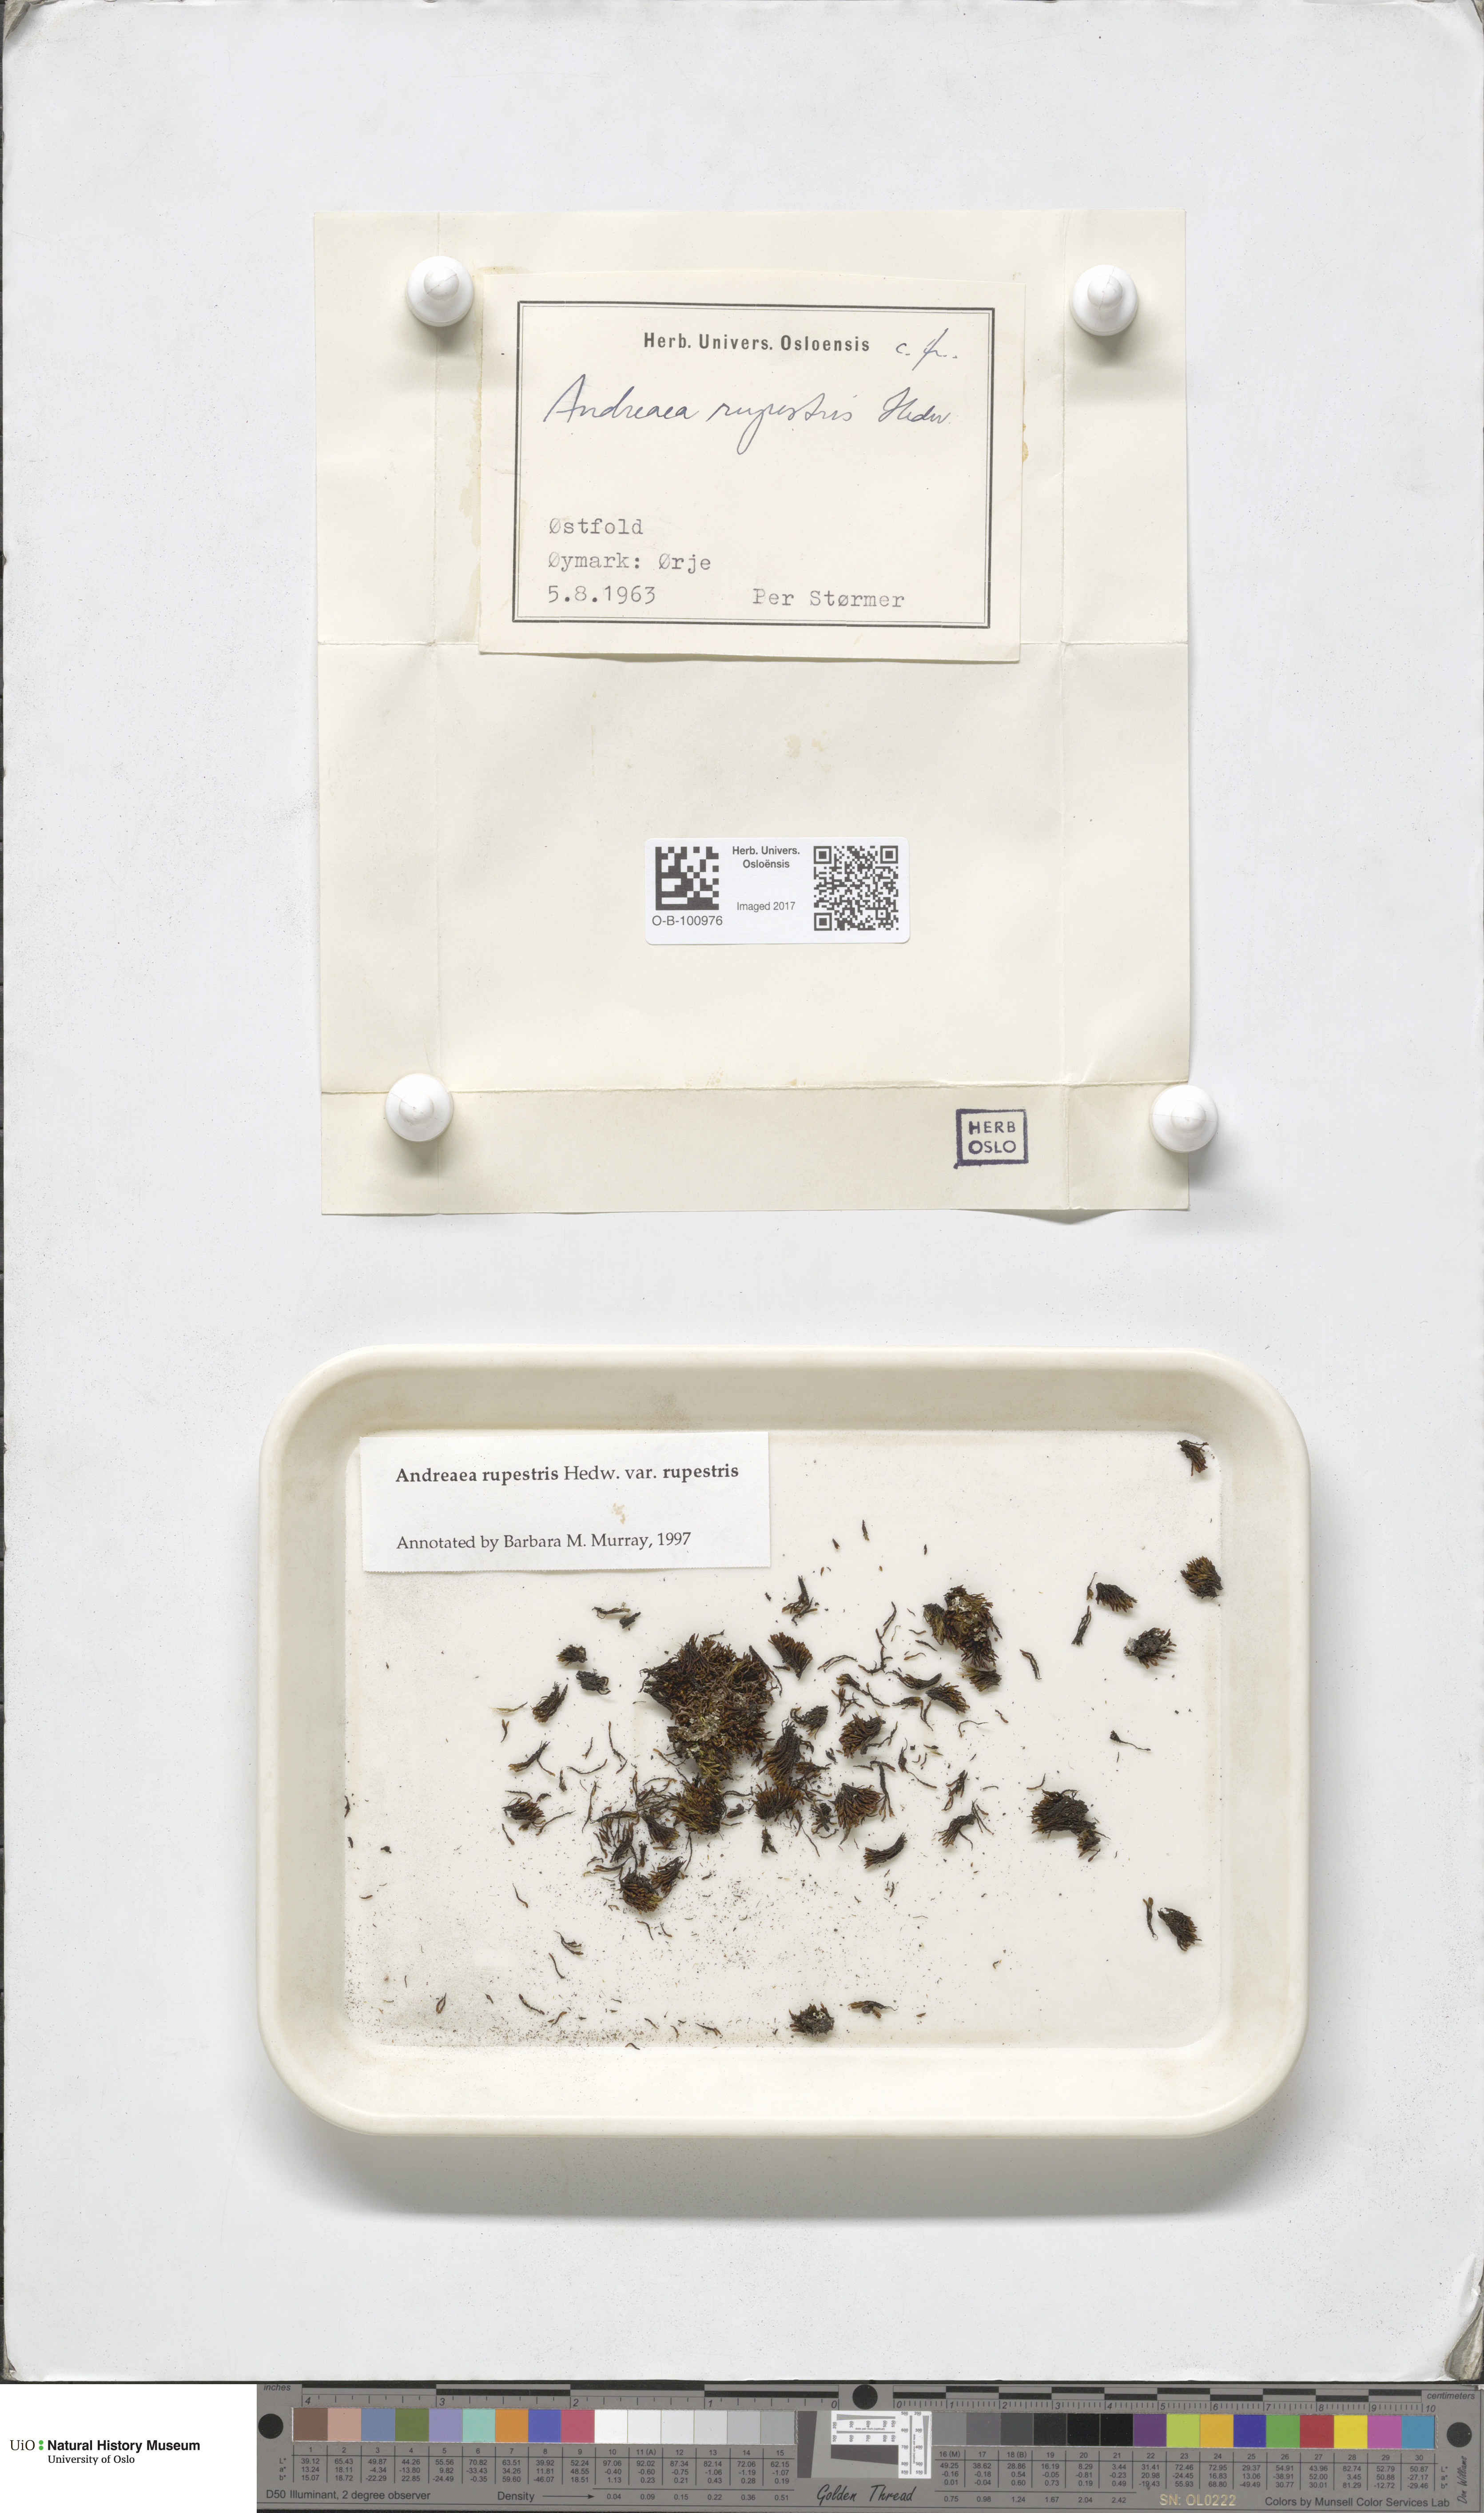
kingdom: Plantae
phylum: Bryophyta
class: Andreaeopsida
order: Andreaeales
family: Andreaeaceae
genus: Andreaea
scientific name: Andreaea rupestris
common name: Black rock moss
